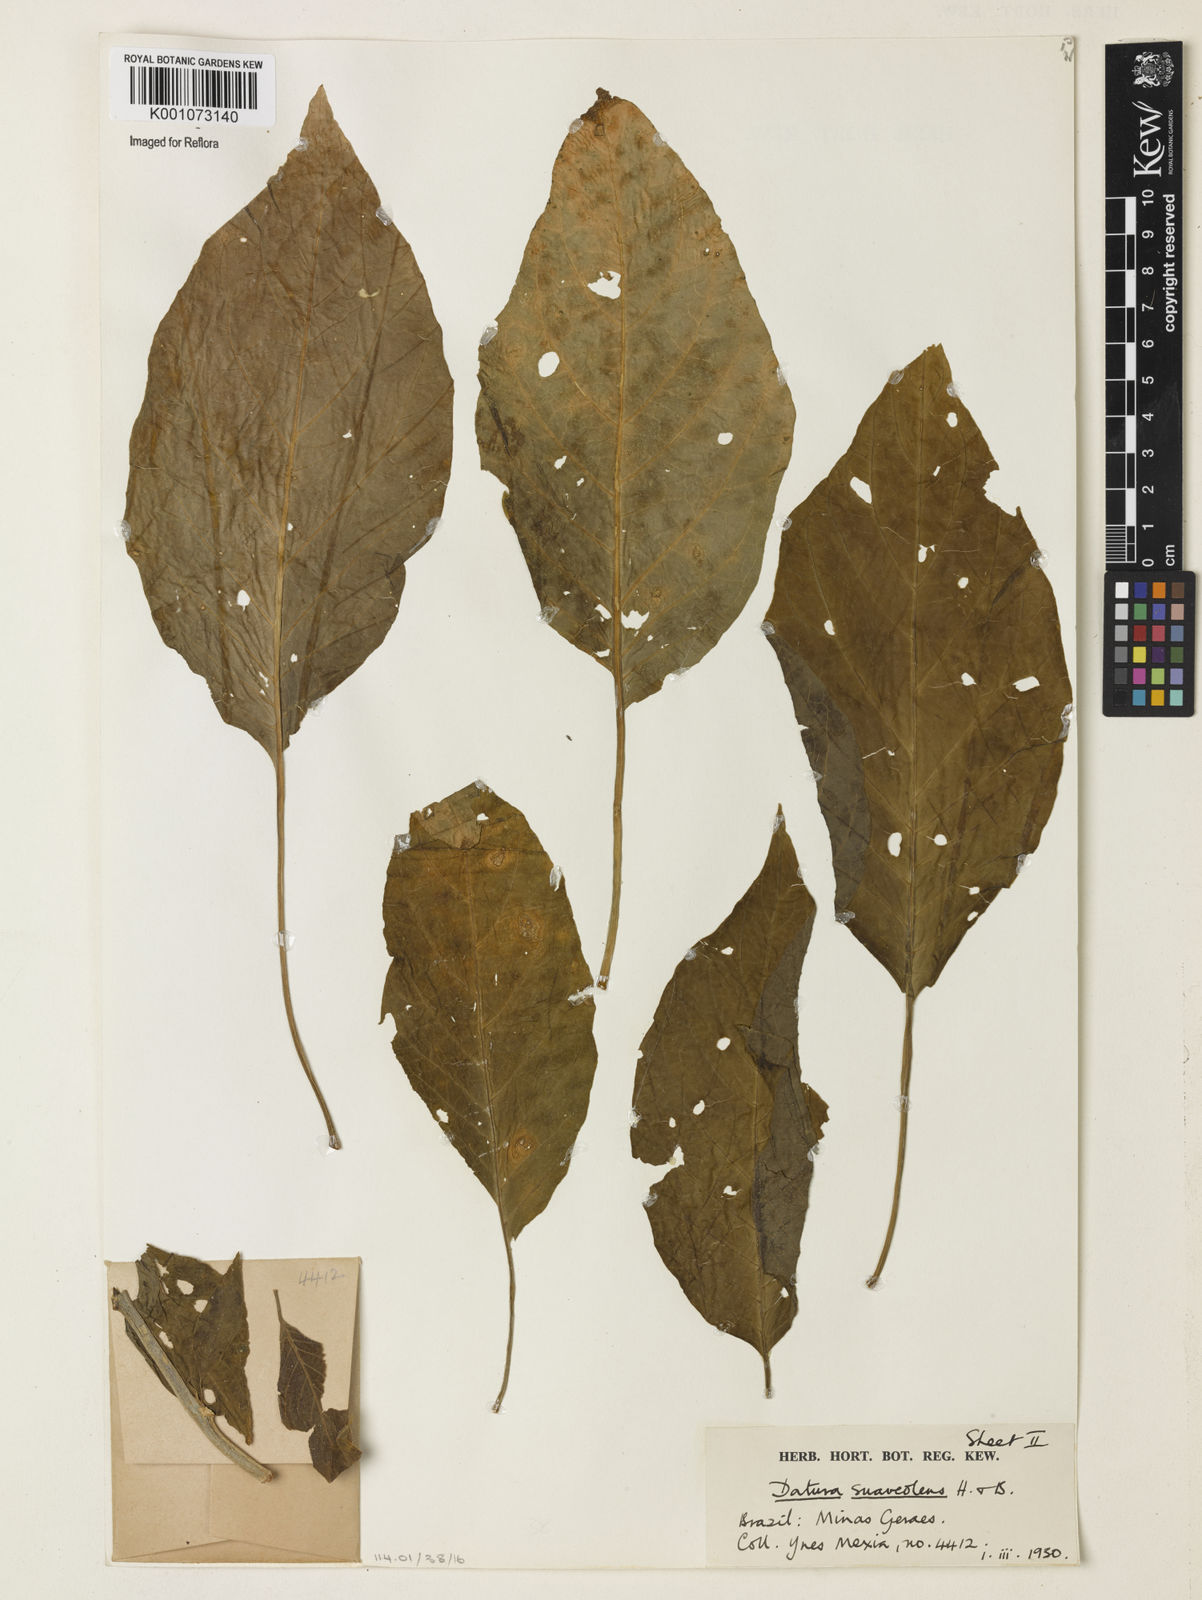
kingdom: Plantae
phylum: Tracheophyta
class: Magnoliopsida
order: Solanales
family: Solanaceae
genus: Brugmansia
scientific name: Brugmansia
